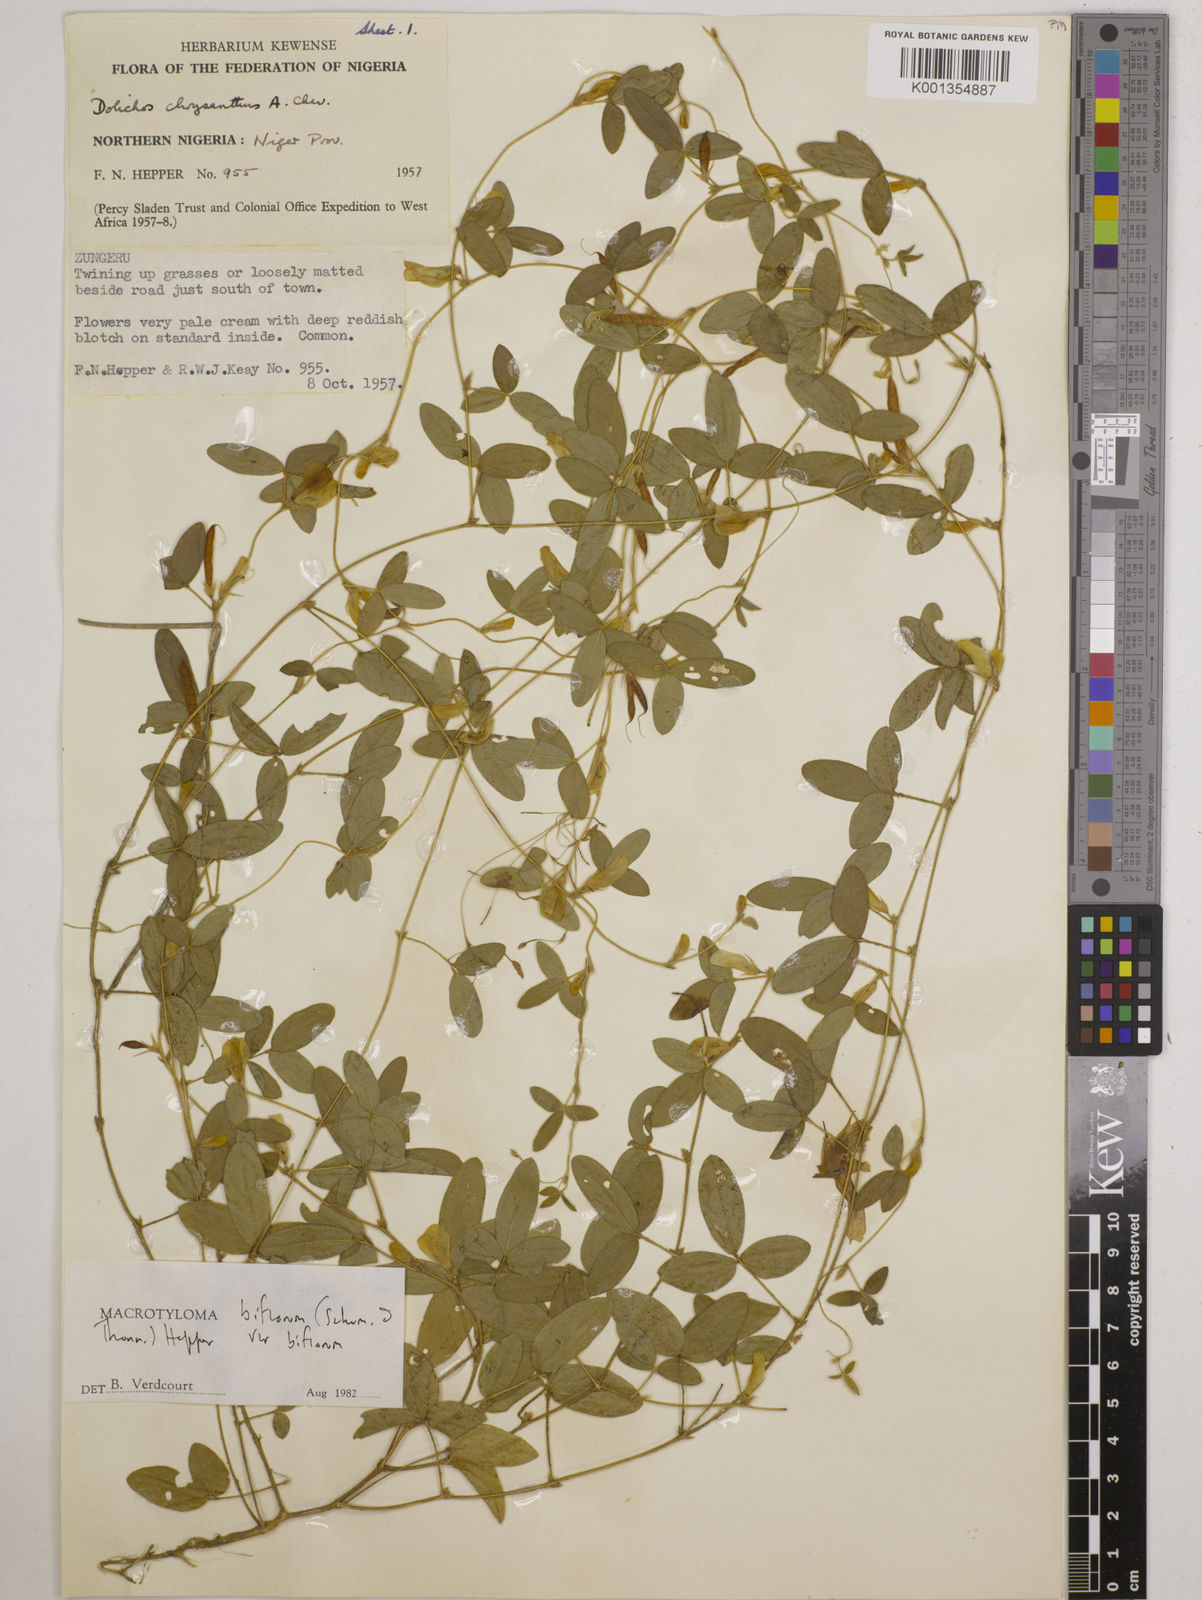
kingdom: Plantae
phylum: Tracheophyta
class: Magnoliopsida
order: Fabales
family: Fabaceae
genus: Macrotyloma
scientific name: Macrotyloma biflorum
